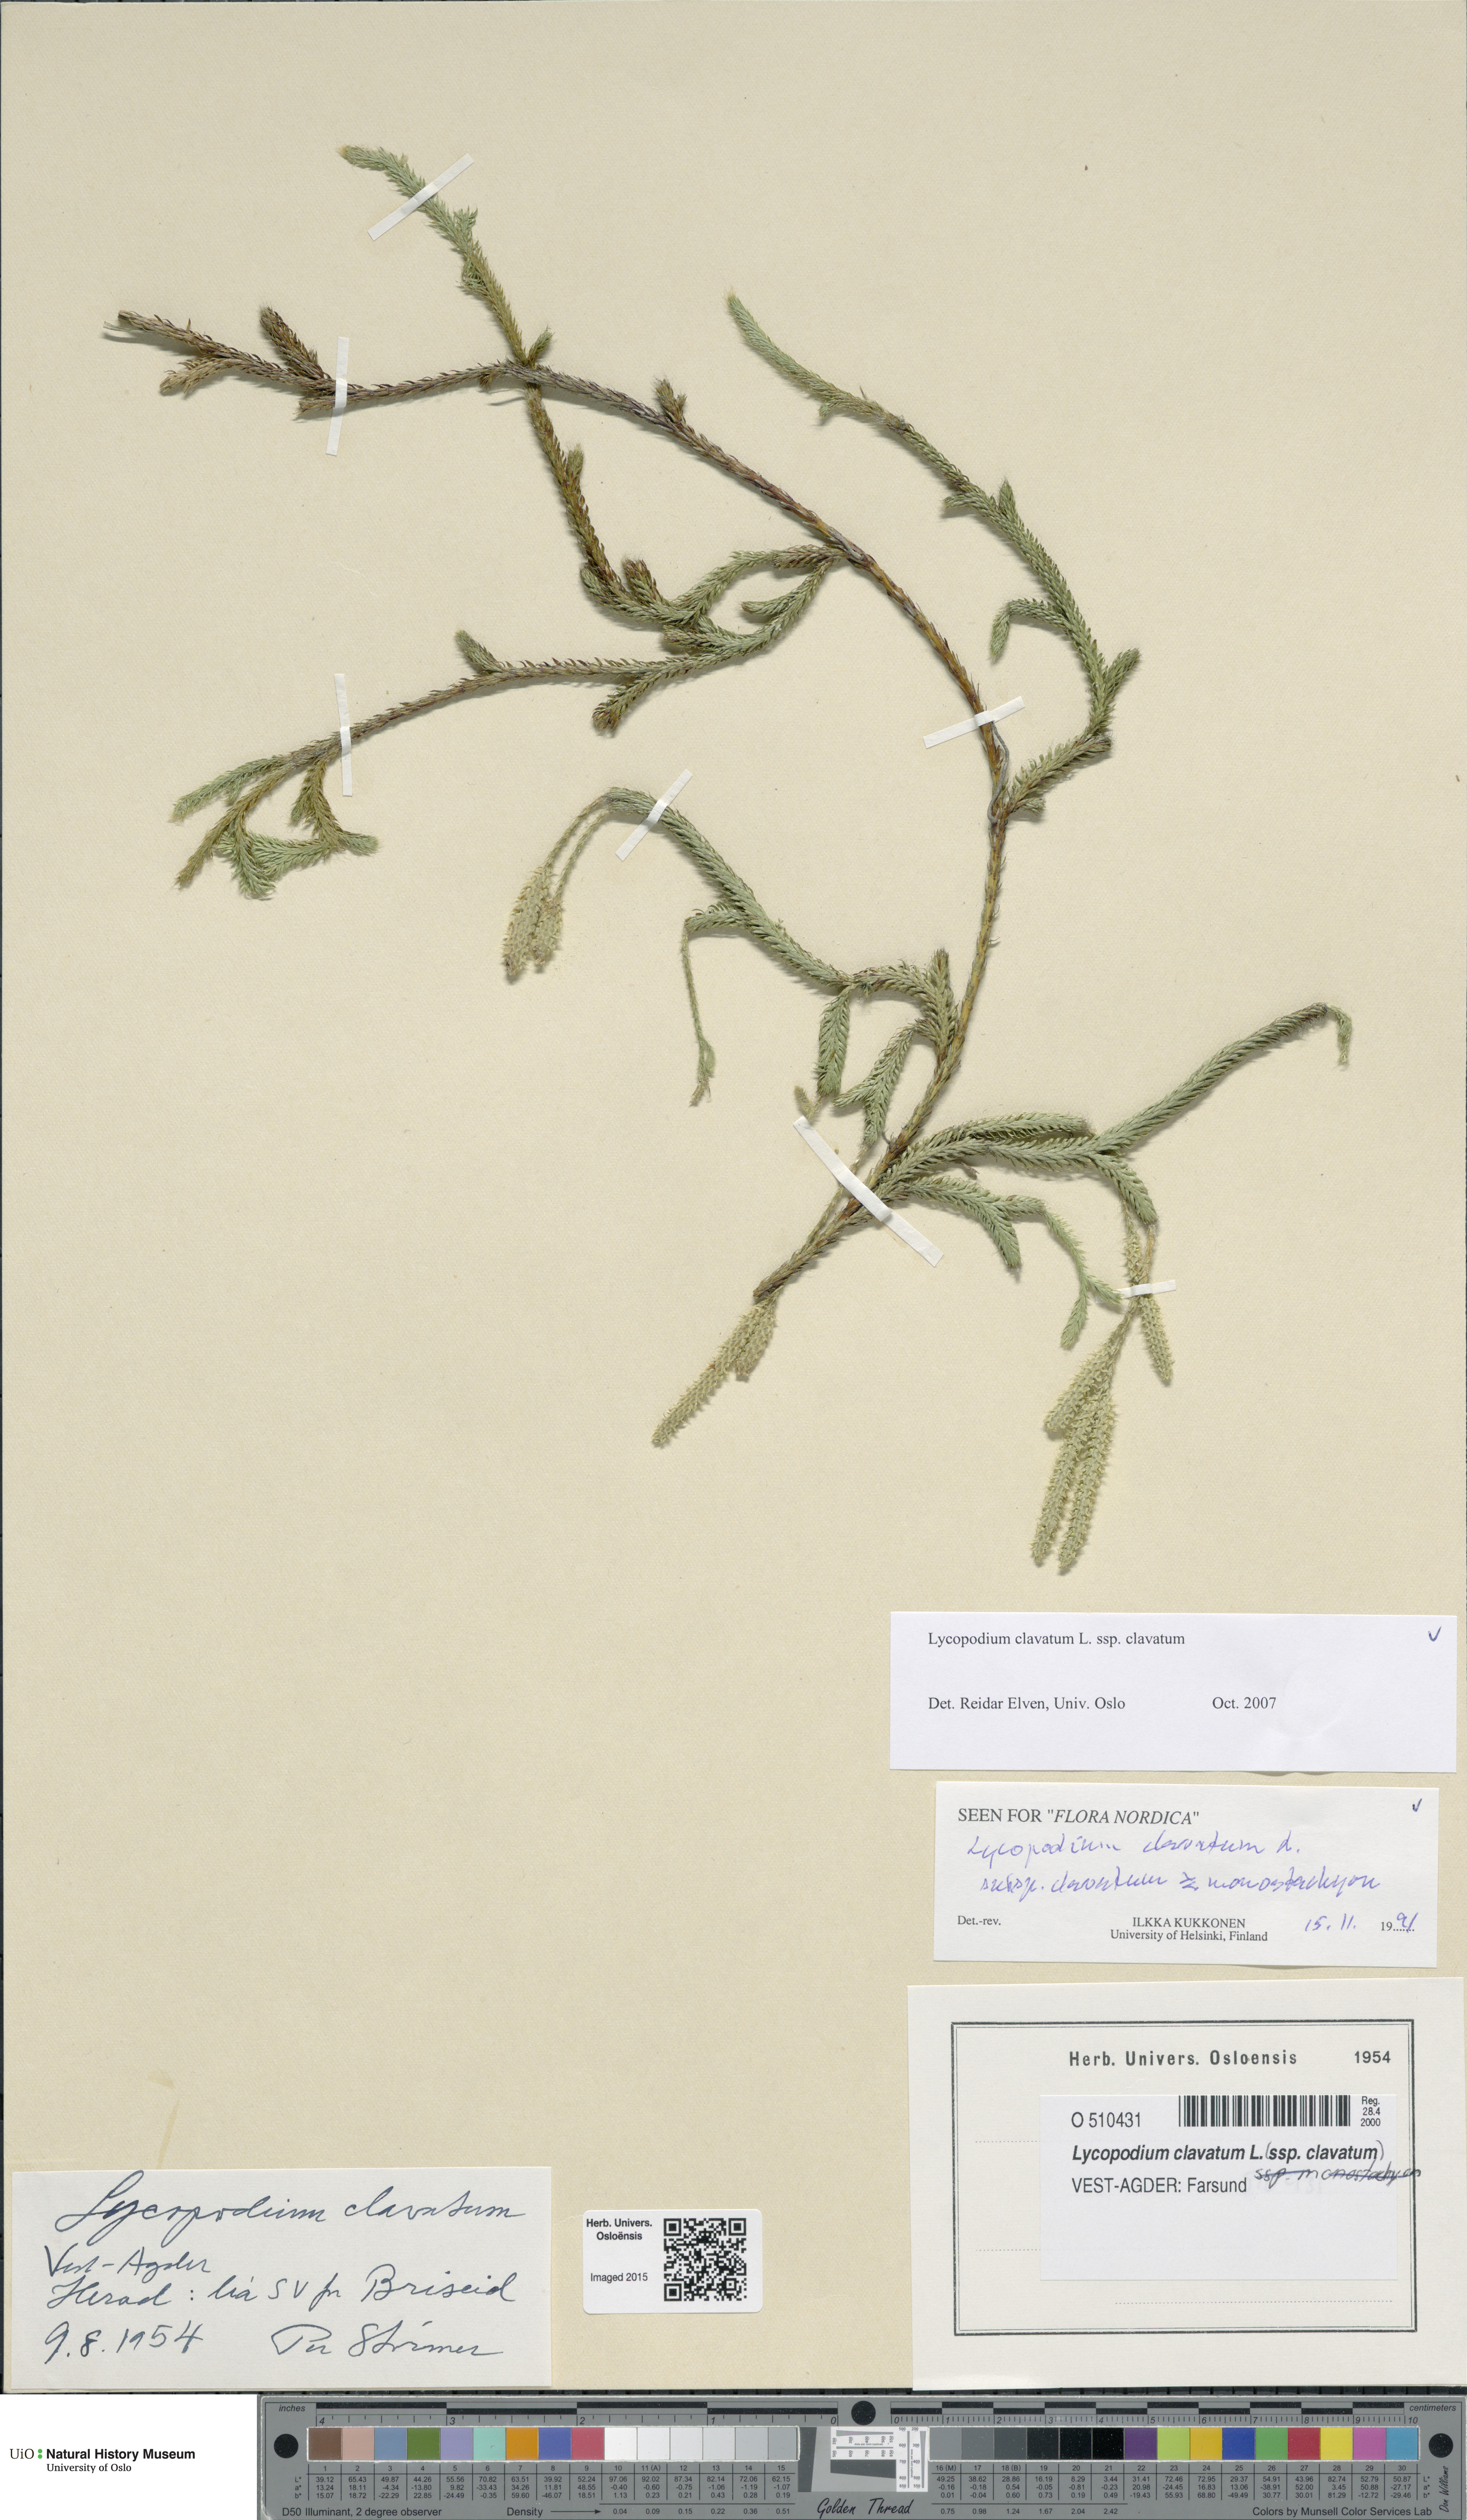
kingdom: Plantae
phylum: Tracheophyta
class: Lycopodiopsida
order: Lycopodiales
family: Lycopodiaceae
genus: Lycopodium
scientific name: Lycopodium clavatum
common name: Stag's-horn clubmoss
